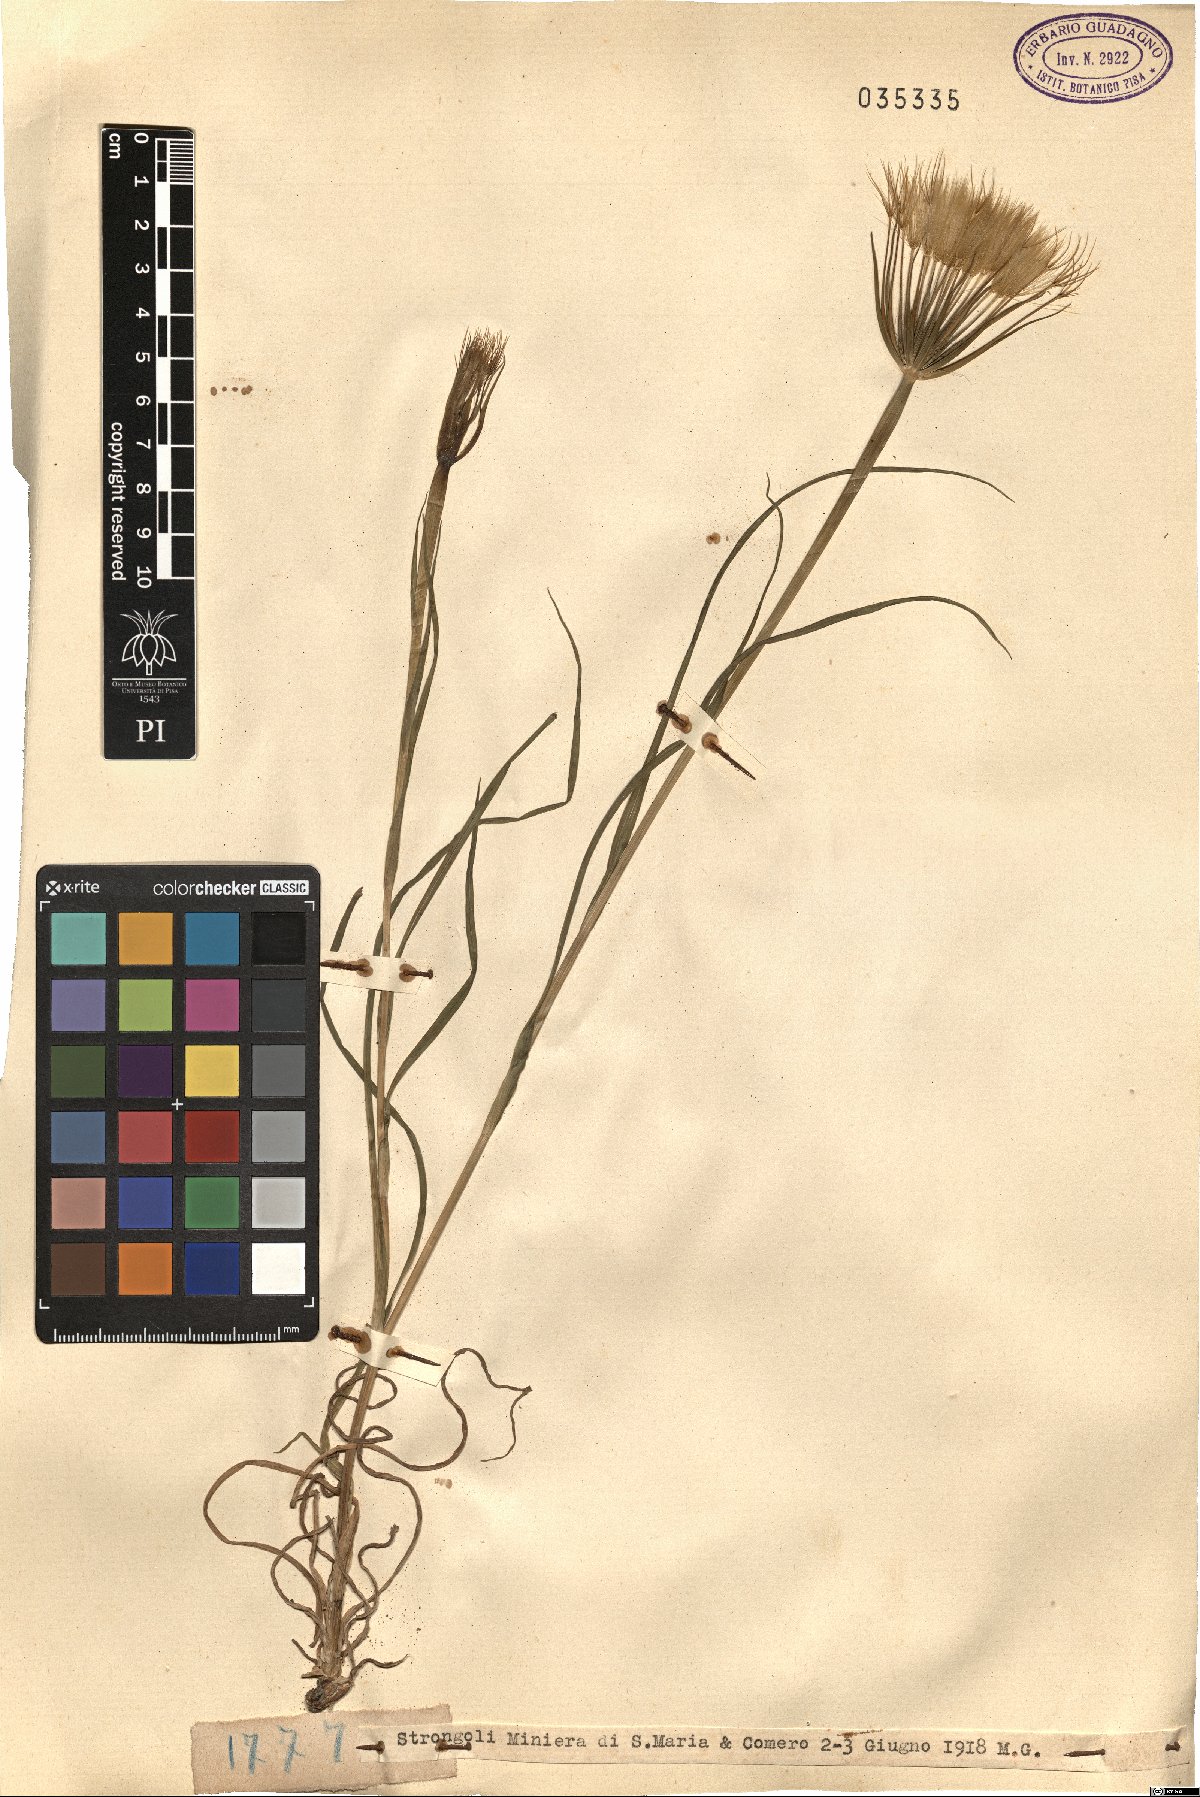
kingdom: Plantae
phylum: Tracheophyta
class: Magnoliopsida
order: Asterales
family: Asteraceae
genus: Geropogon
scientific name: Geropogon
